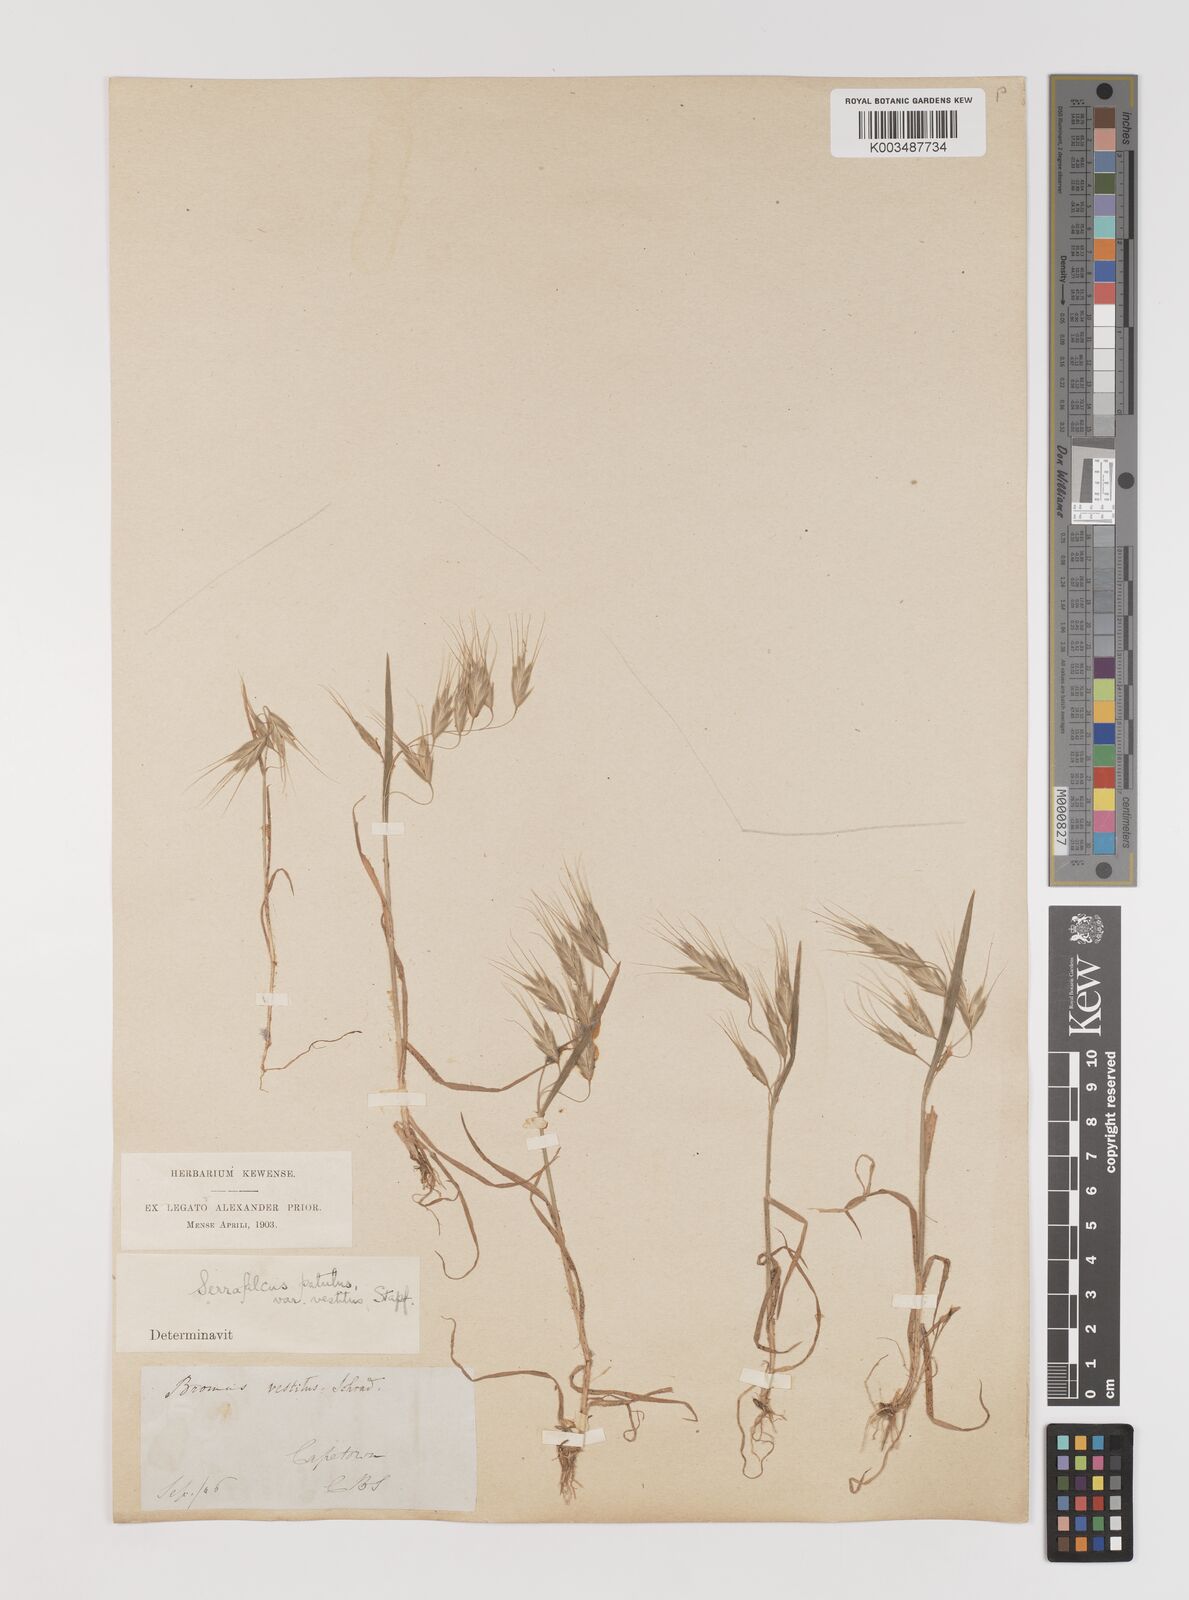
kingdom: Plantae
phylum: Tracheophyta
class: Liliopsida
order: Poales
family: Poaceae
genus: Bromus
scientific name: Bromus pectinatus
